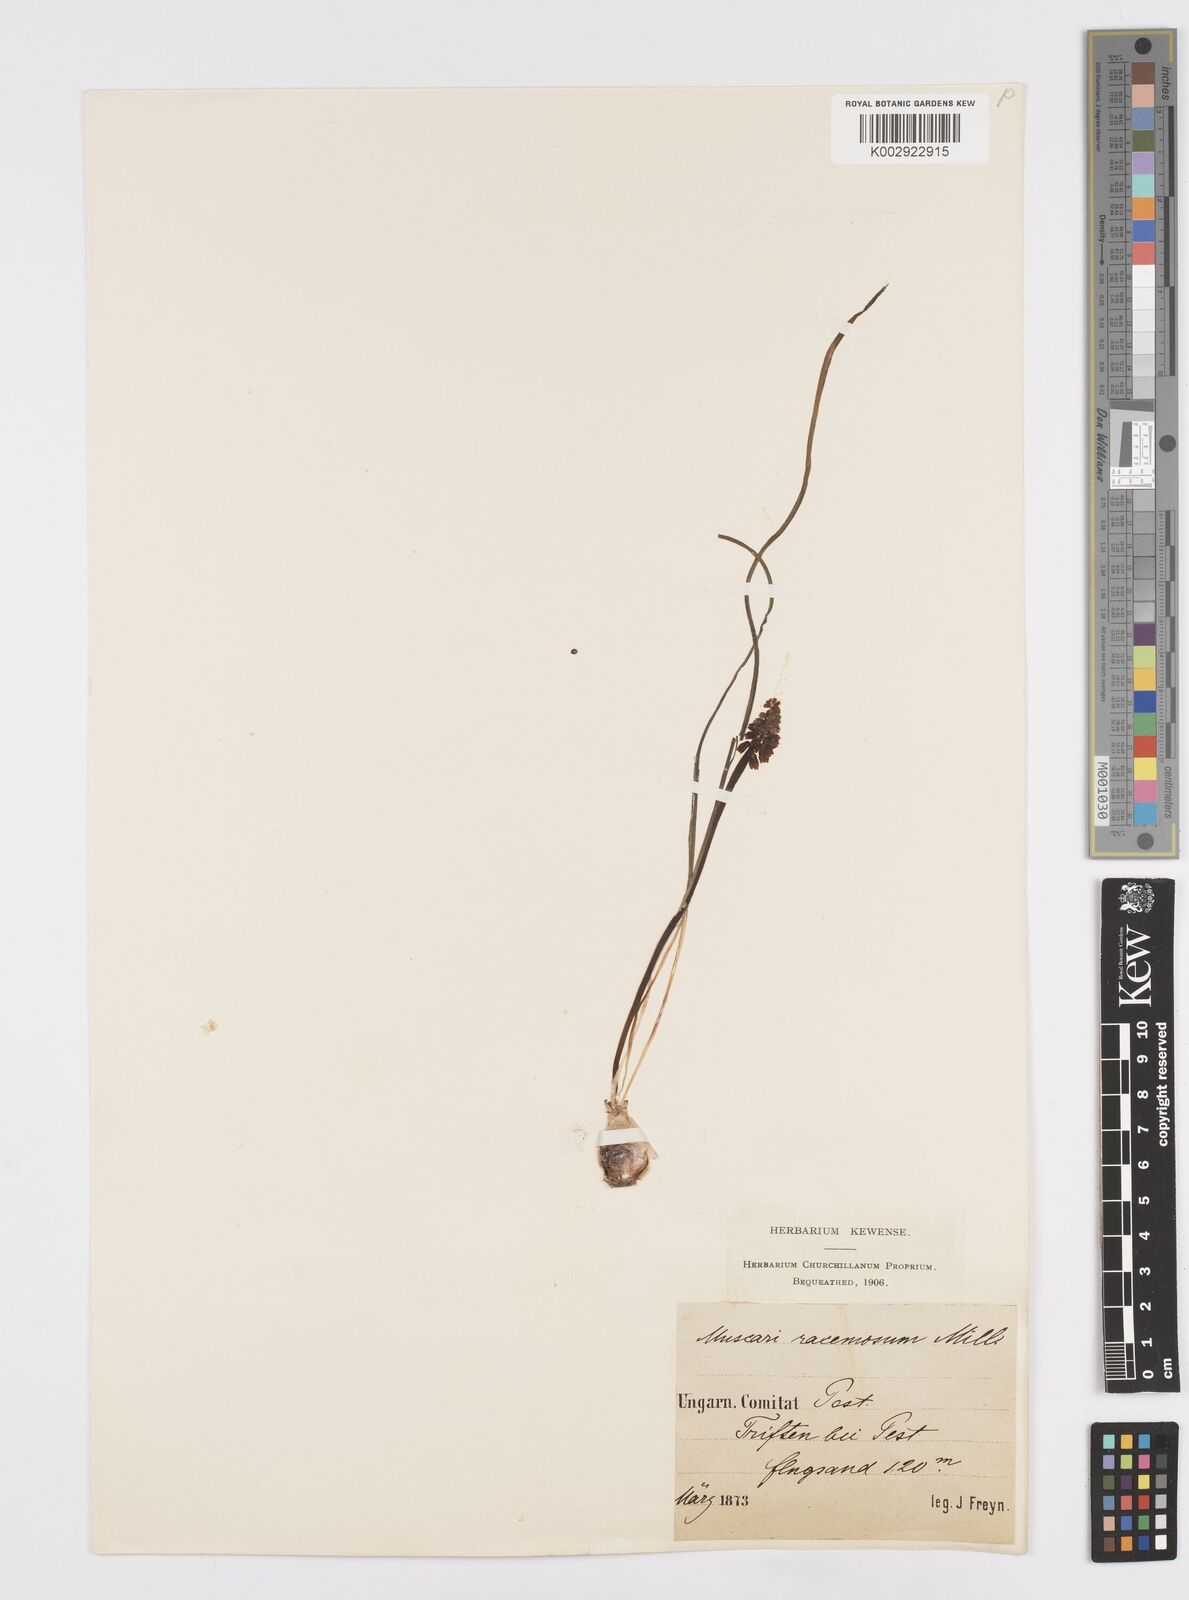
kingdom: Plantae
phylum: Tracheophyta
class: Liliopsida
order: Asparagales
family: Asparagaceae
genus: Muscarimia
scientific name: Muscarimia muscari
